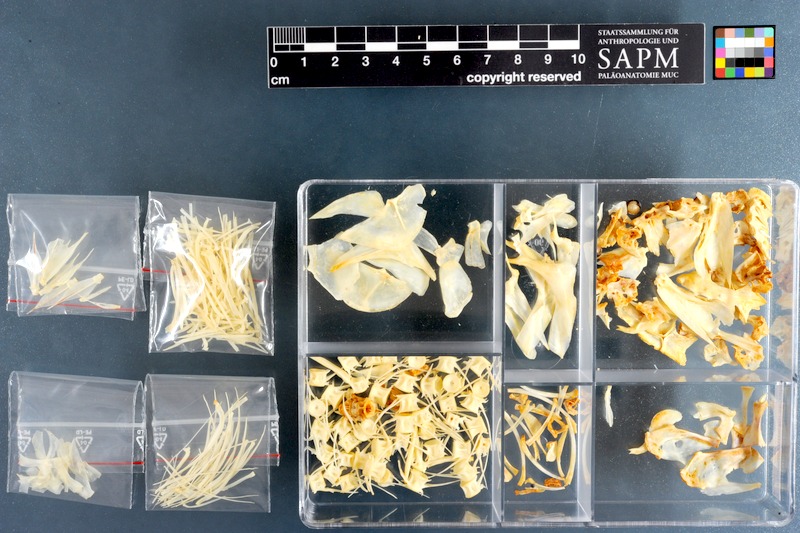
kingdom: Animalia
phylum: Chordata
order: Characiformes
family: Alestidae
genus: Hydrocynus
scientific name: Hydrocynus forskahlii
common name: Elongate tigerfish
